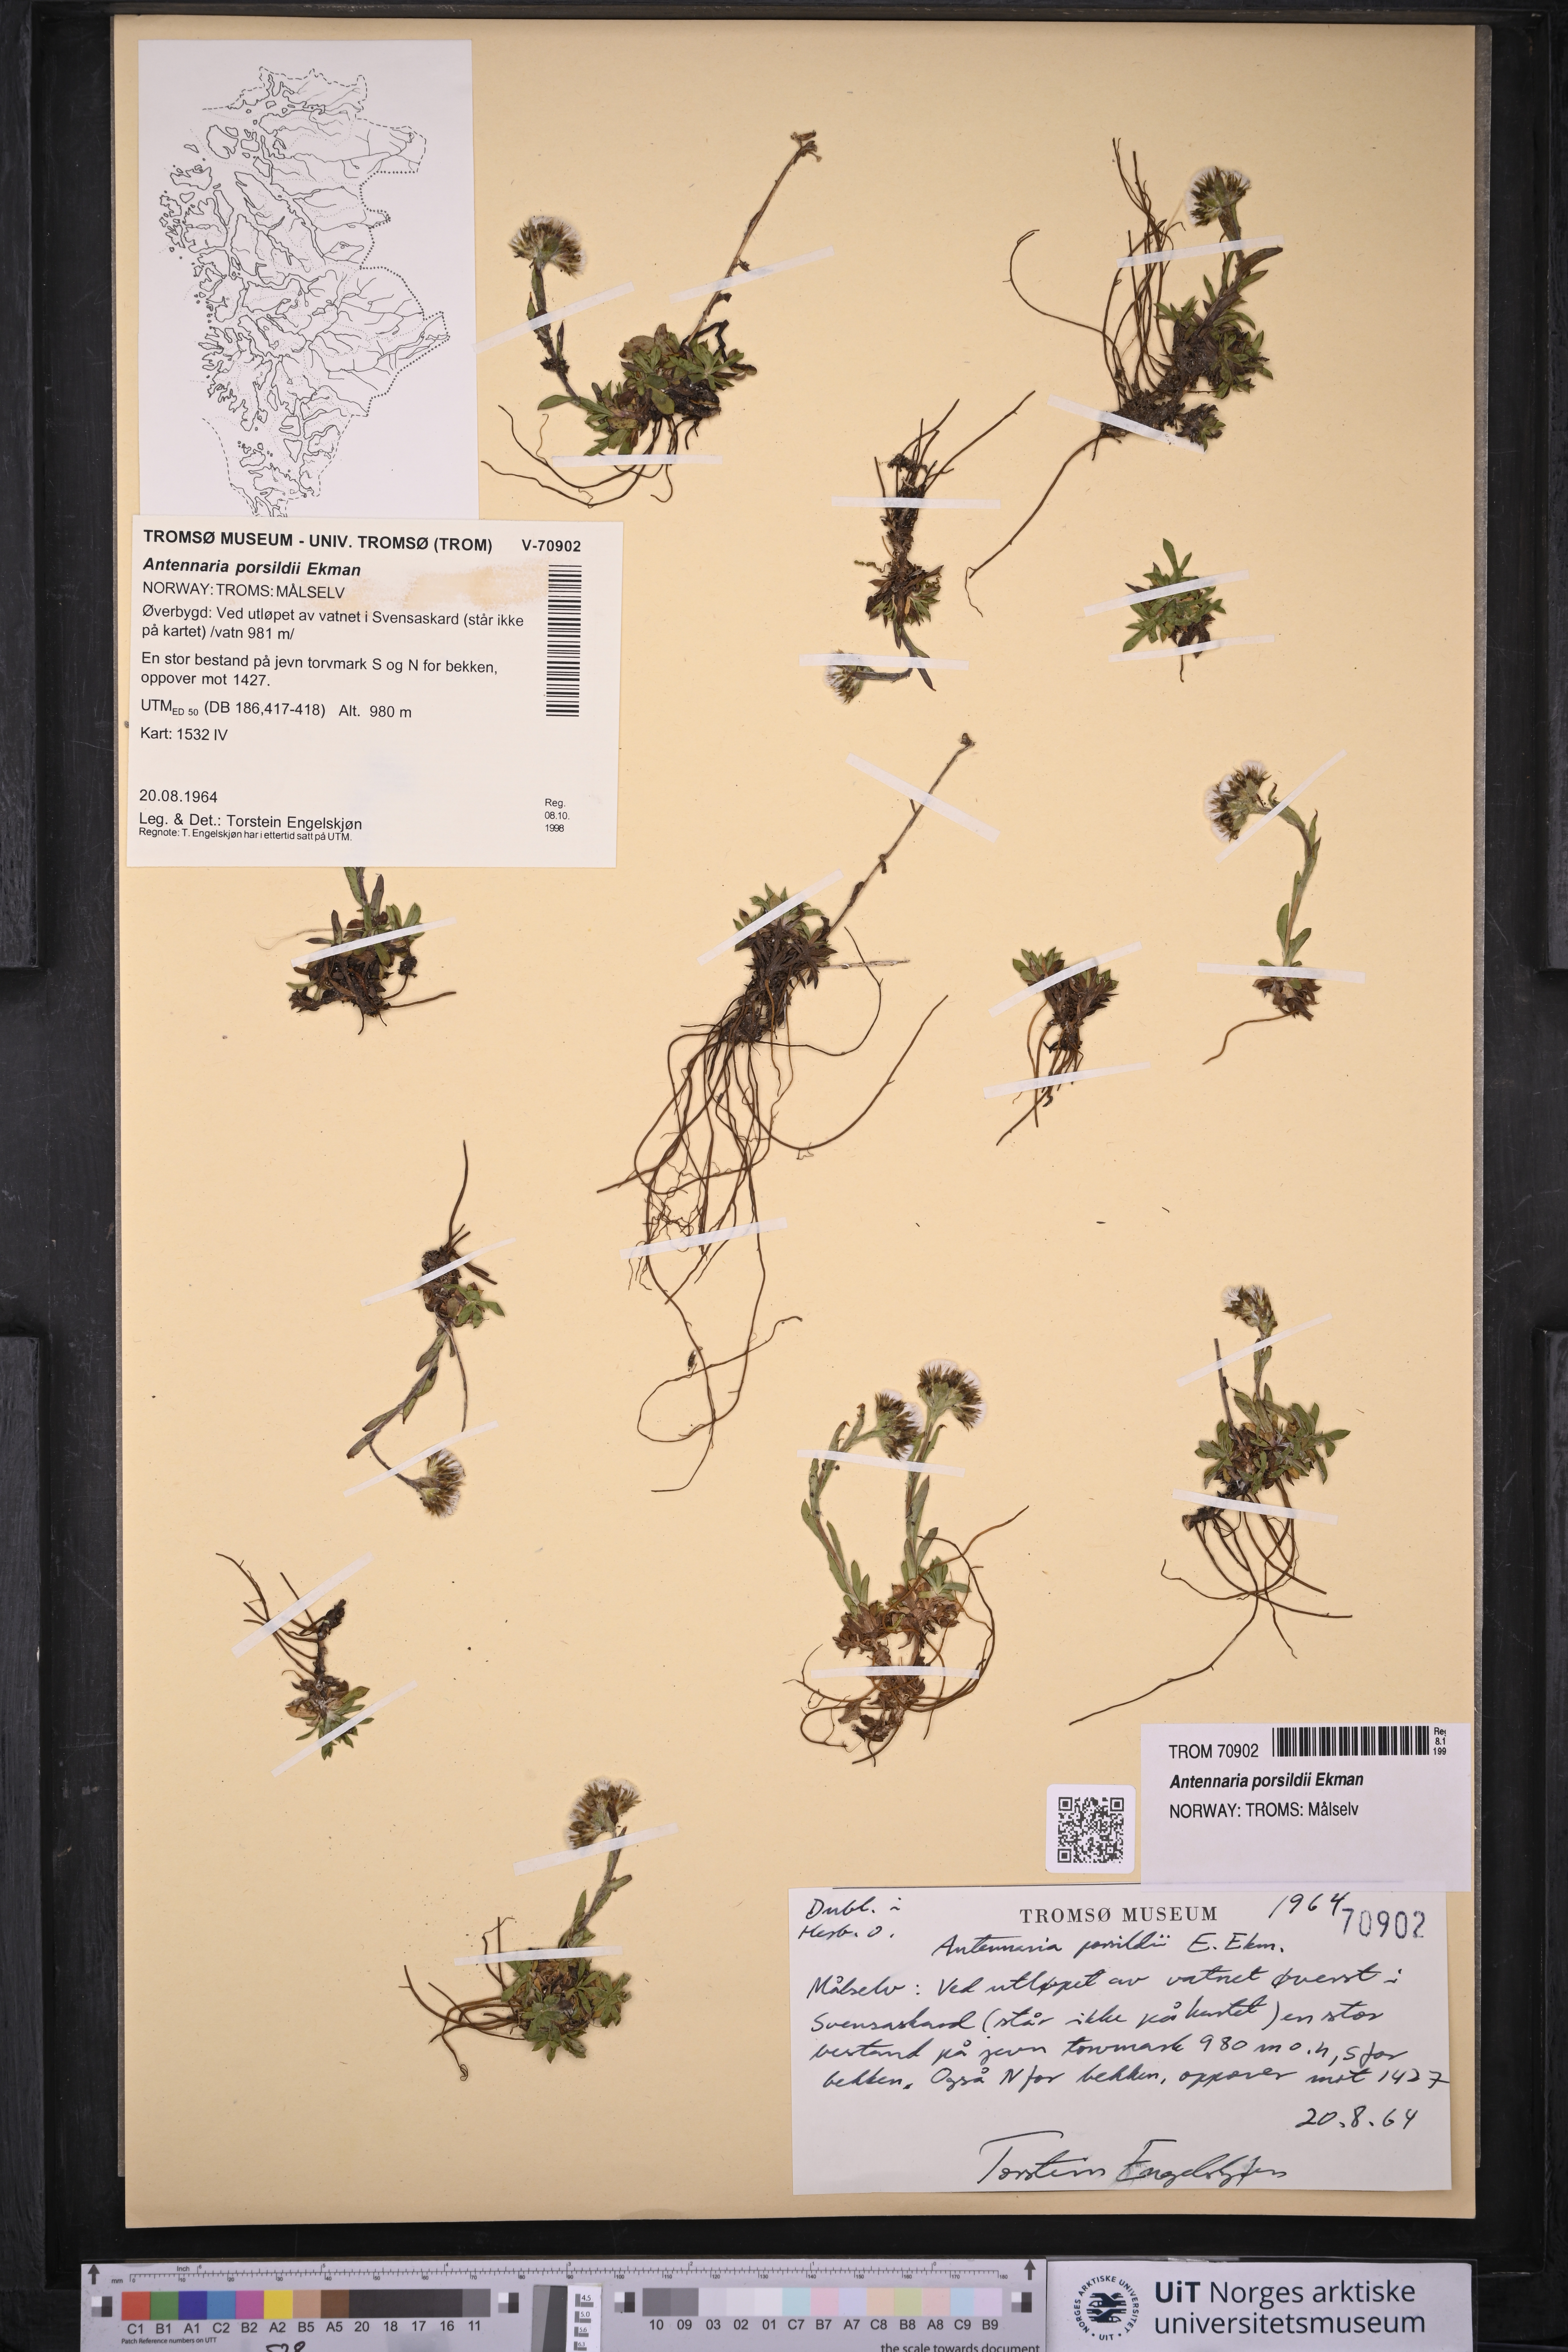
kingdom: Plantae
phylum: Tracheophyta
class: Magnoliopsida
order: Asterales
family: Asteraceae
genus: Antennaria
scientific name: Antennaria porsildii
